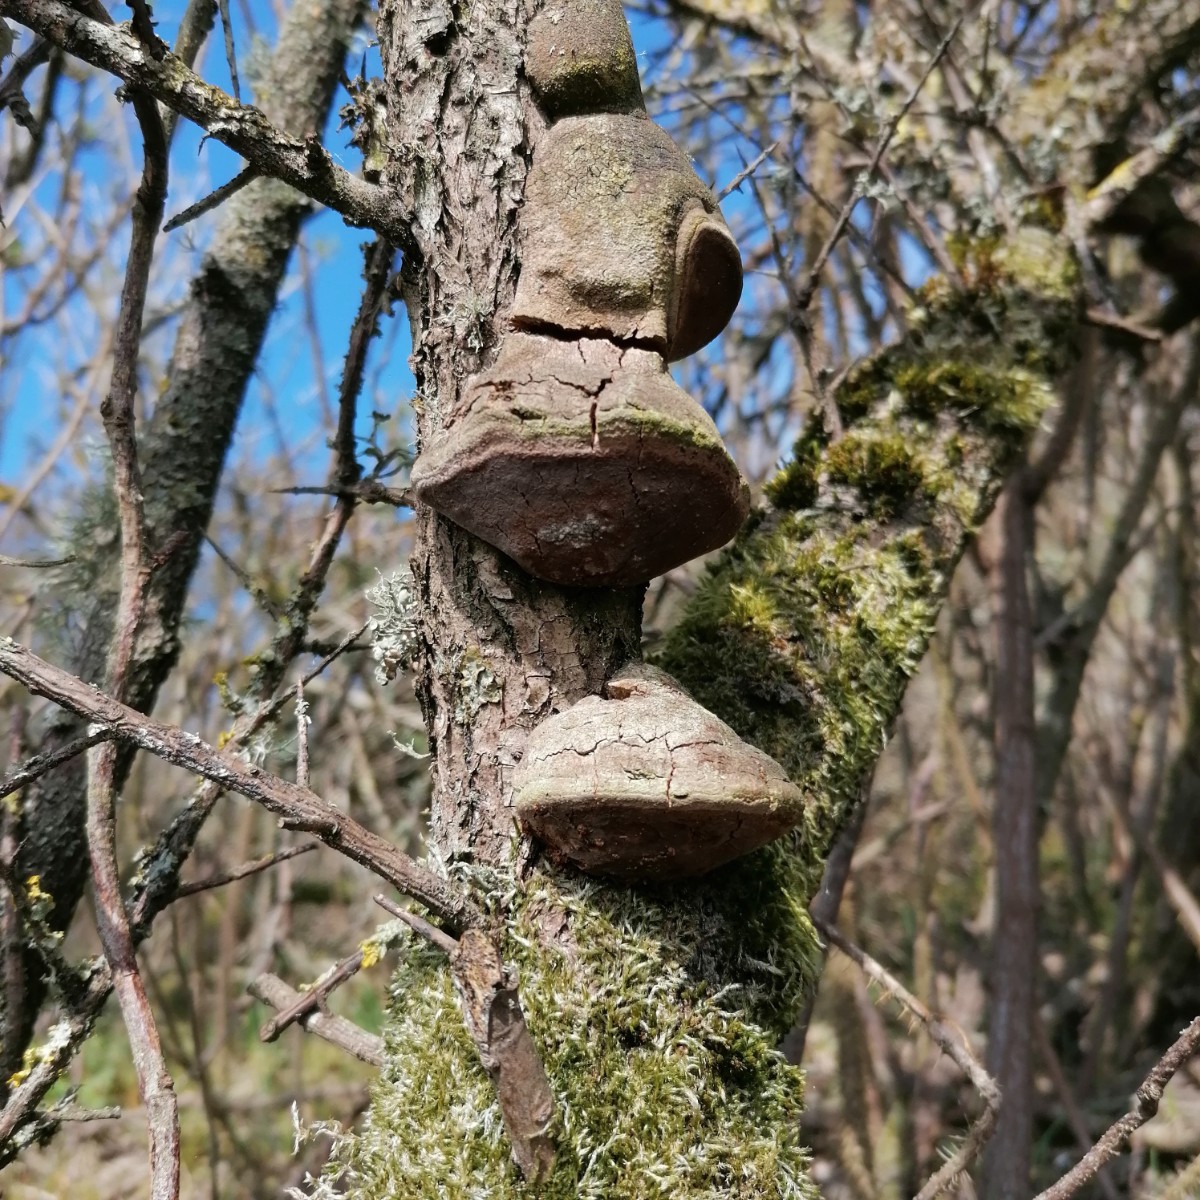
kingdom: Fungi
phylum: Basidiomycota
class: Agaricomycetes
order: Hymenochaetales
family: Hymenochaetaceae
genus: Fomitiporia
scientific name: Fomitiporia hippophaeicola
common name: havtorn-ildporesvamp
